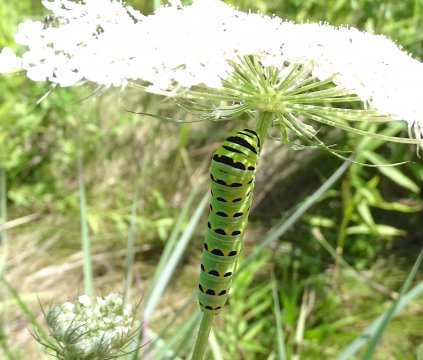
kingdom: Animalia
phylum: Arthropoda
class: Insecta
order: Lepidoptera
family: Papilionidae
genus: Papilio
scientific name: Papilio polyxenes
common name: Black Swallowtail
